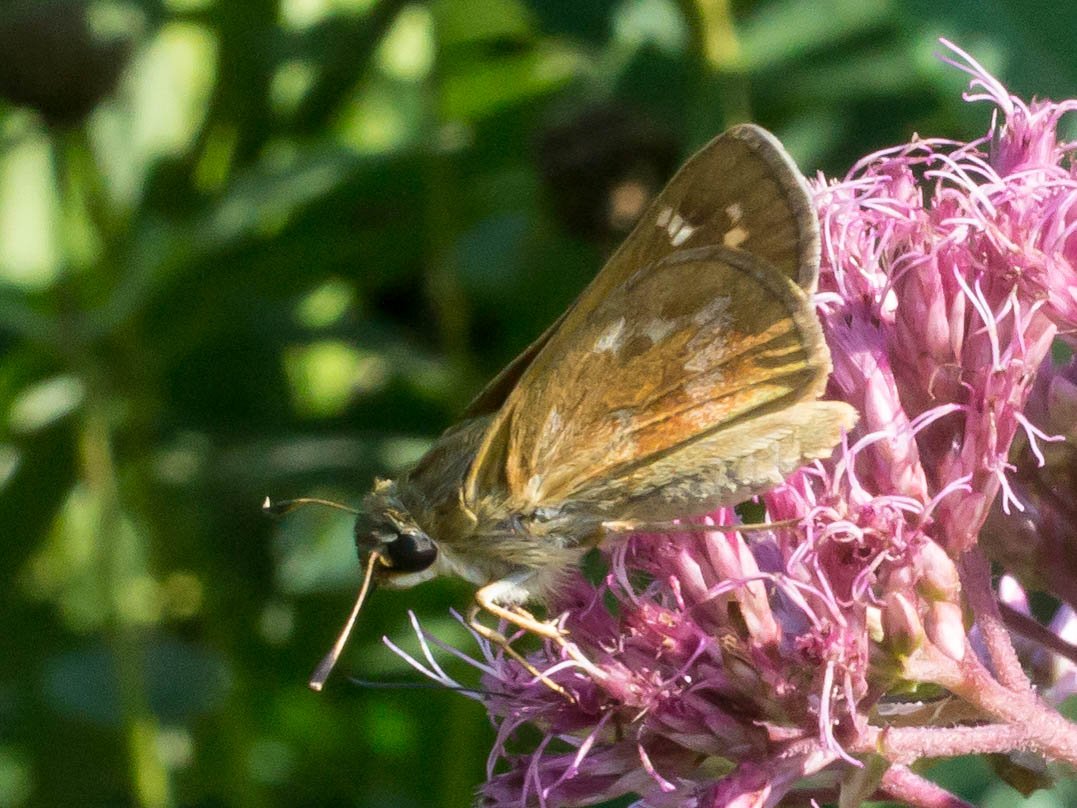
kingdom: Animalia
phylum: Arthropoda
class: Insecta
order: Lepidoptera
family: Hesperiidae
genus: Atalopedes
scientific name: Atalopedes campestris
